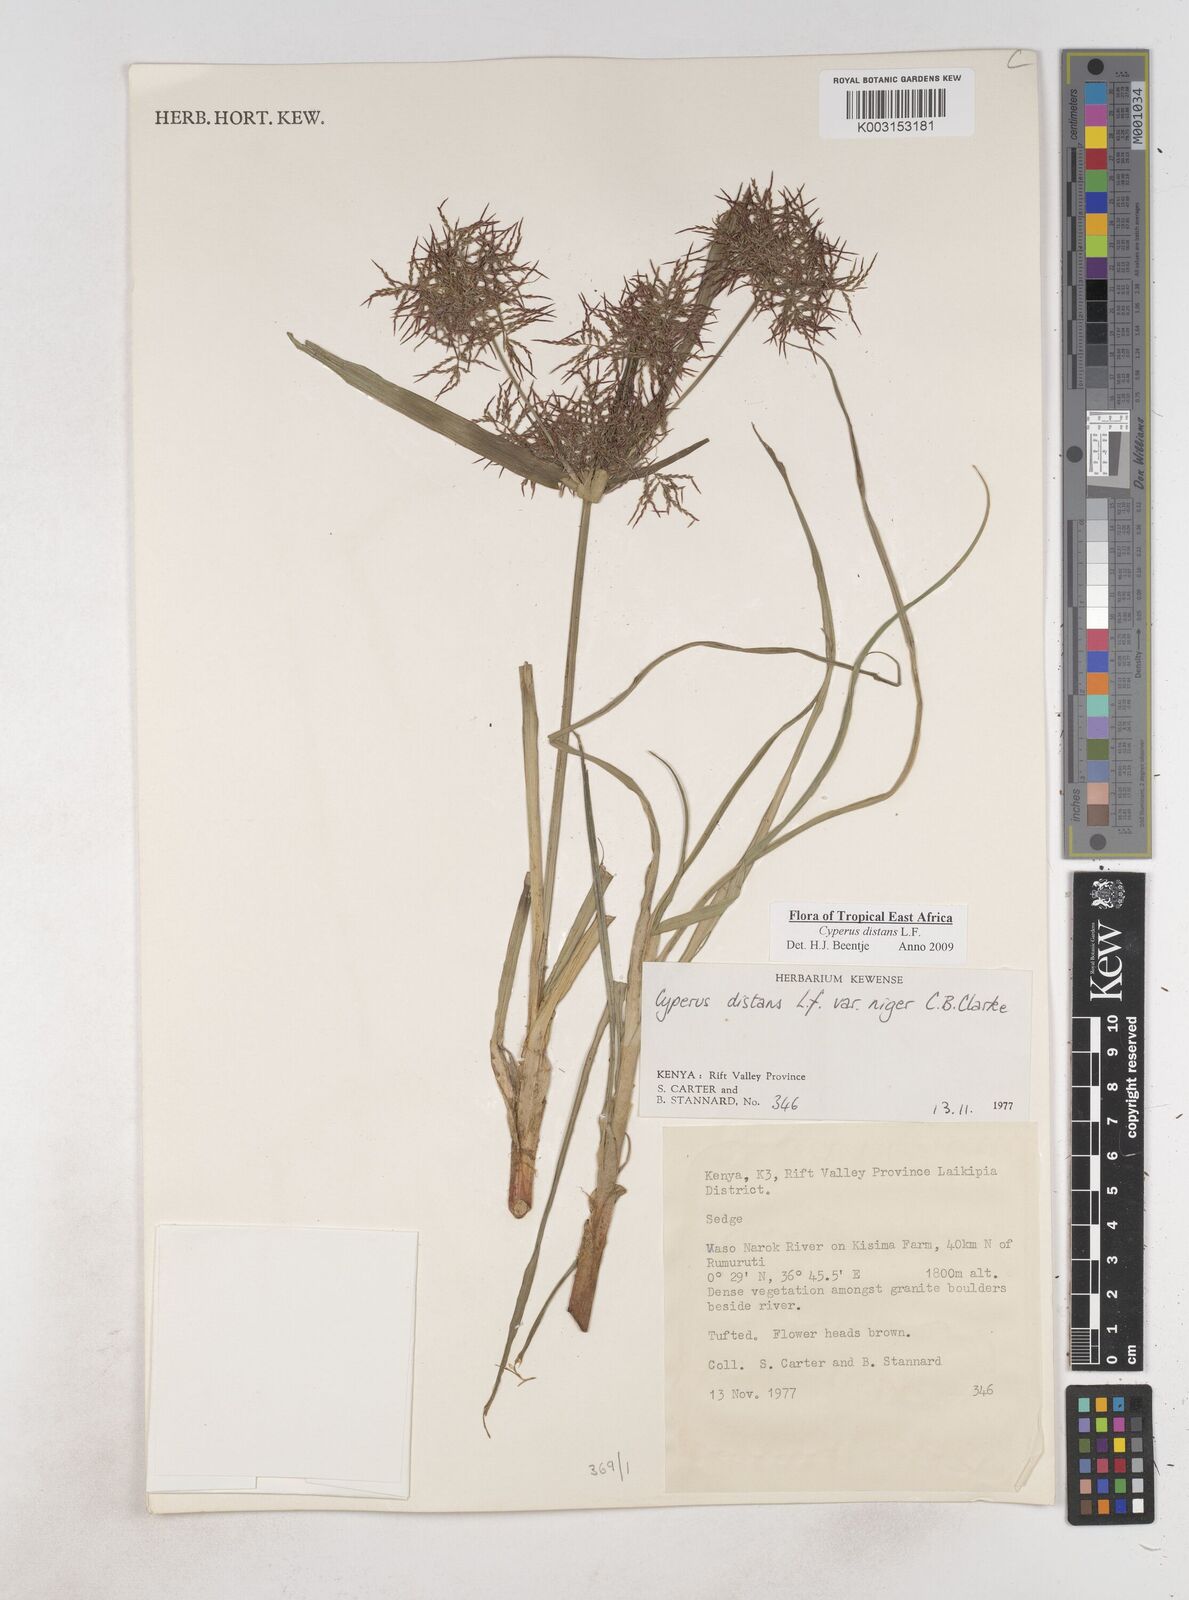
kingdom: Plantae
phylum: Tracheophyta
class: Liliopsida
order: Poales
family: Cyperaceae
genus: Cyperus
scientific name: Cyperus distans
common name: Slender cyperus
